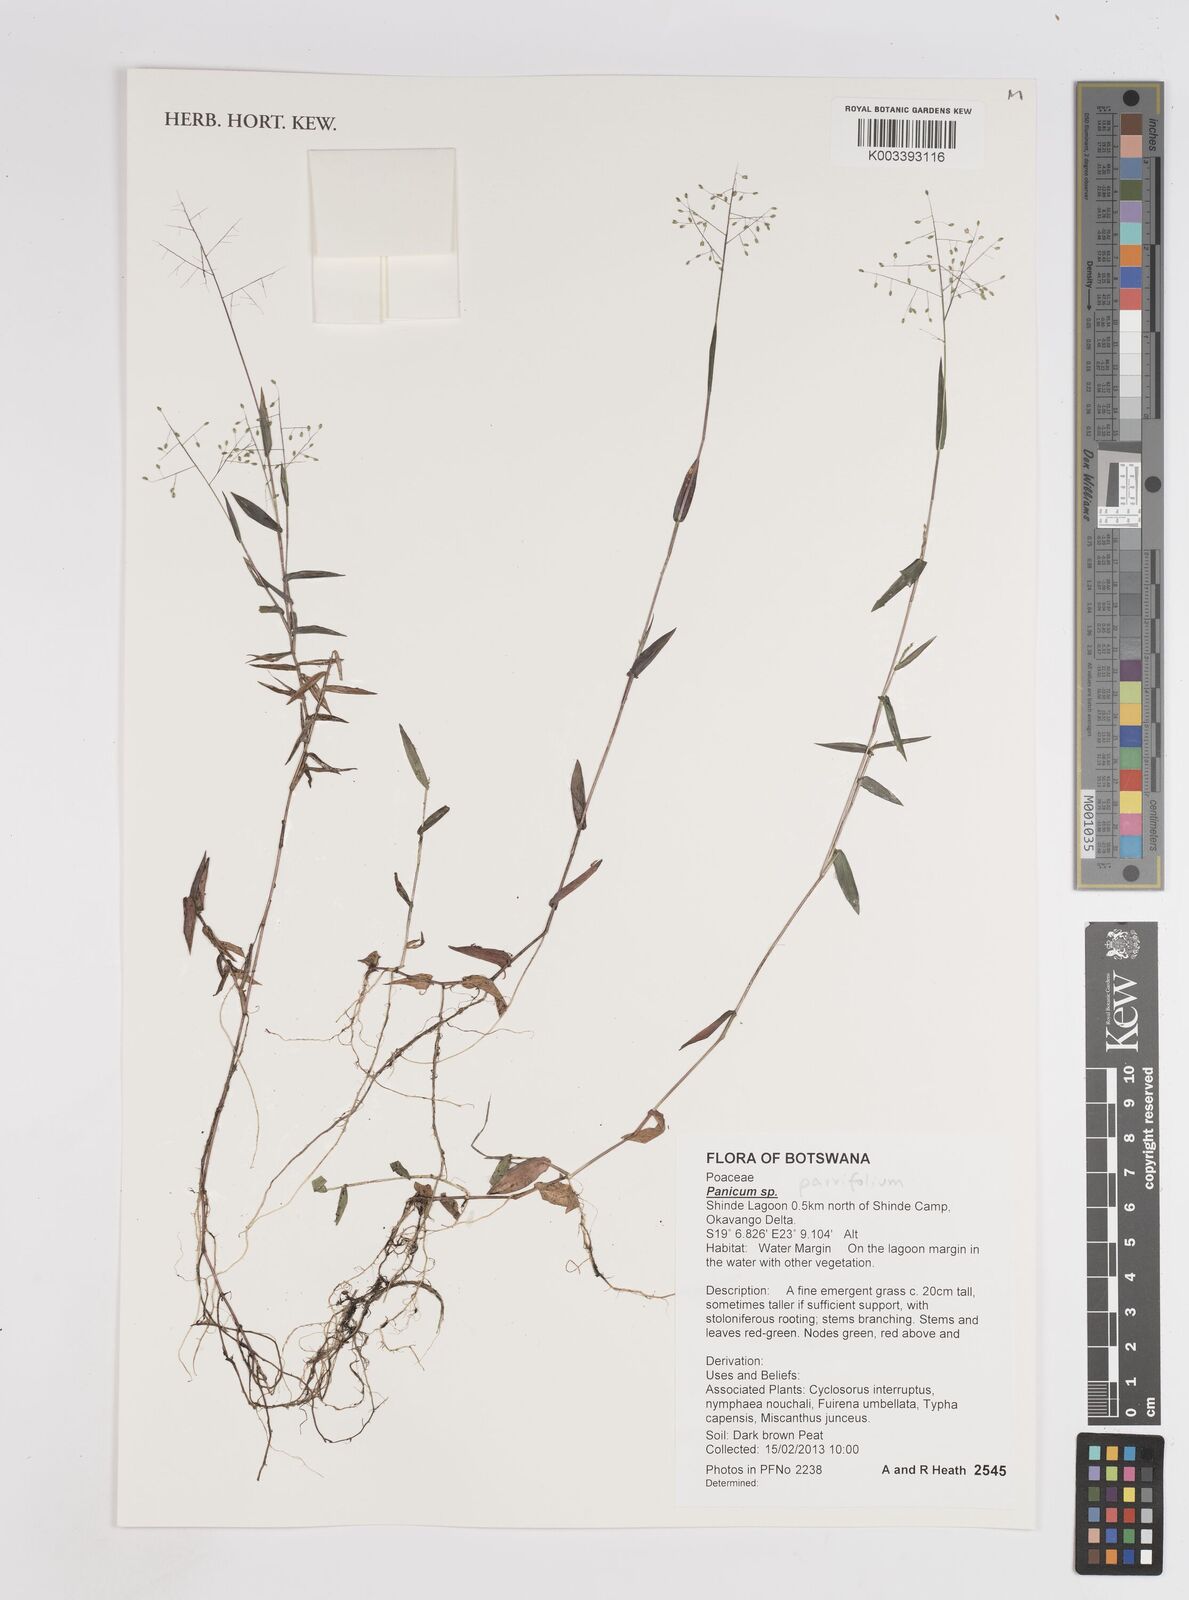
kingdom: Plantae
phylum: Tracheophyta
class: Liliopsida
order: Poales
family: Poaceae
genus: Trichanthecium
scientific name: Trichanthecium parvifolium
